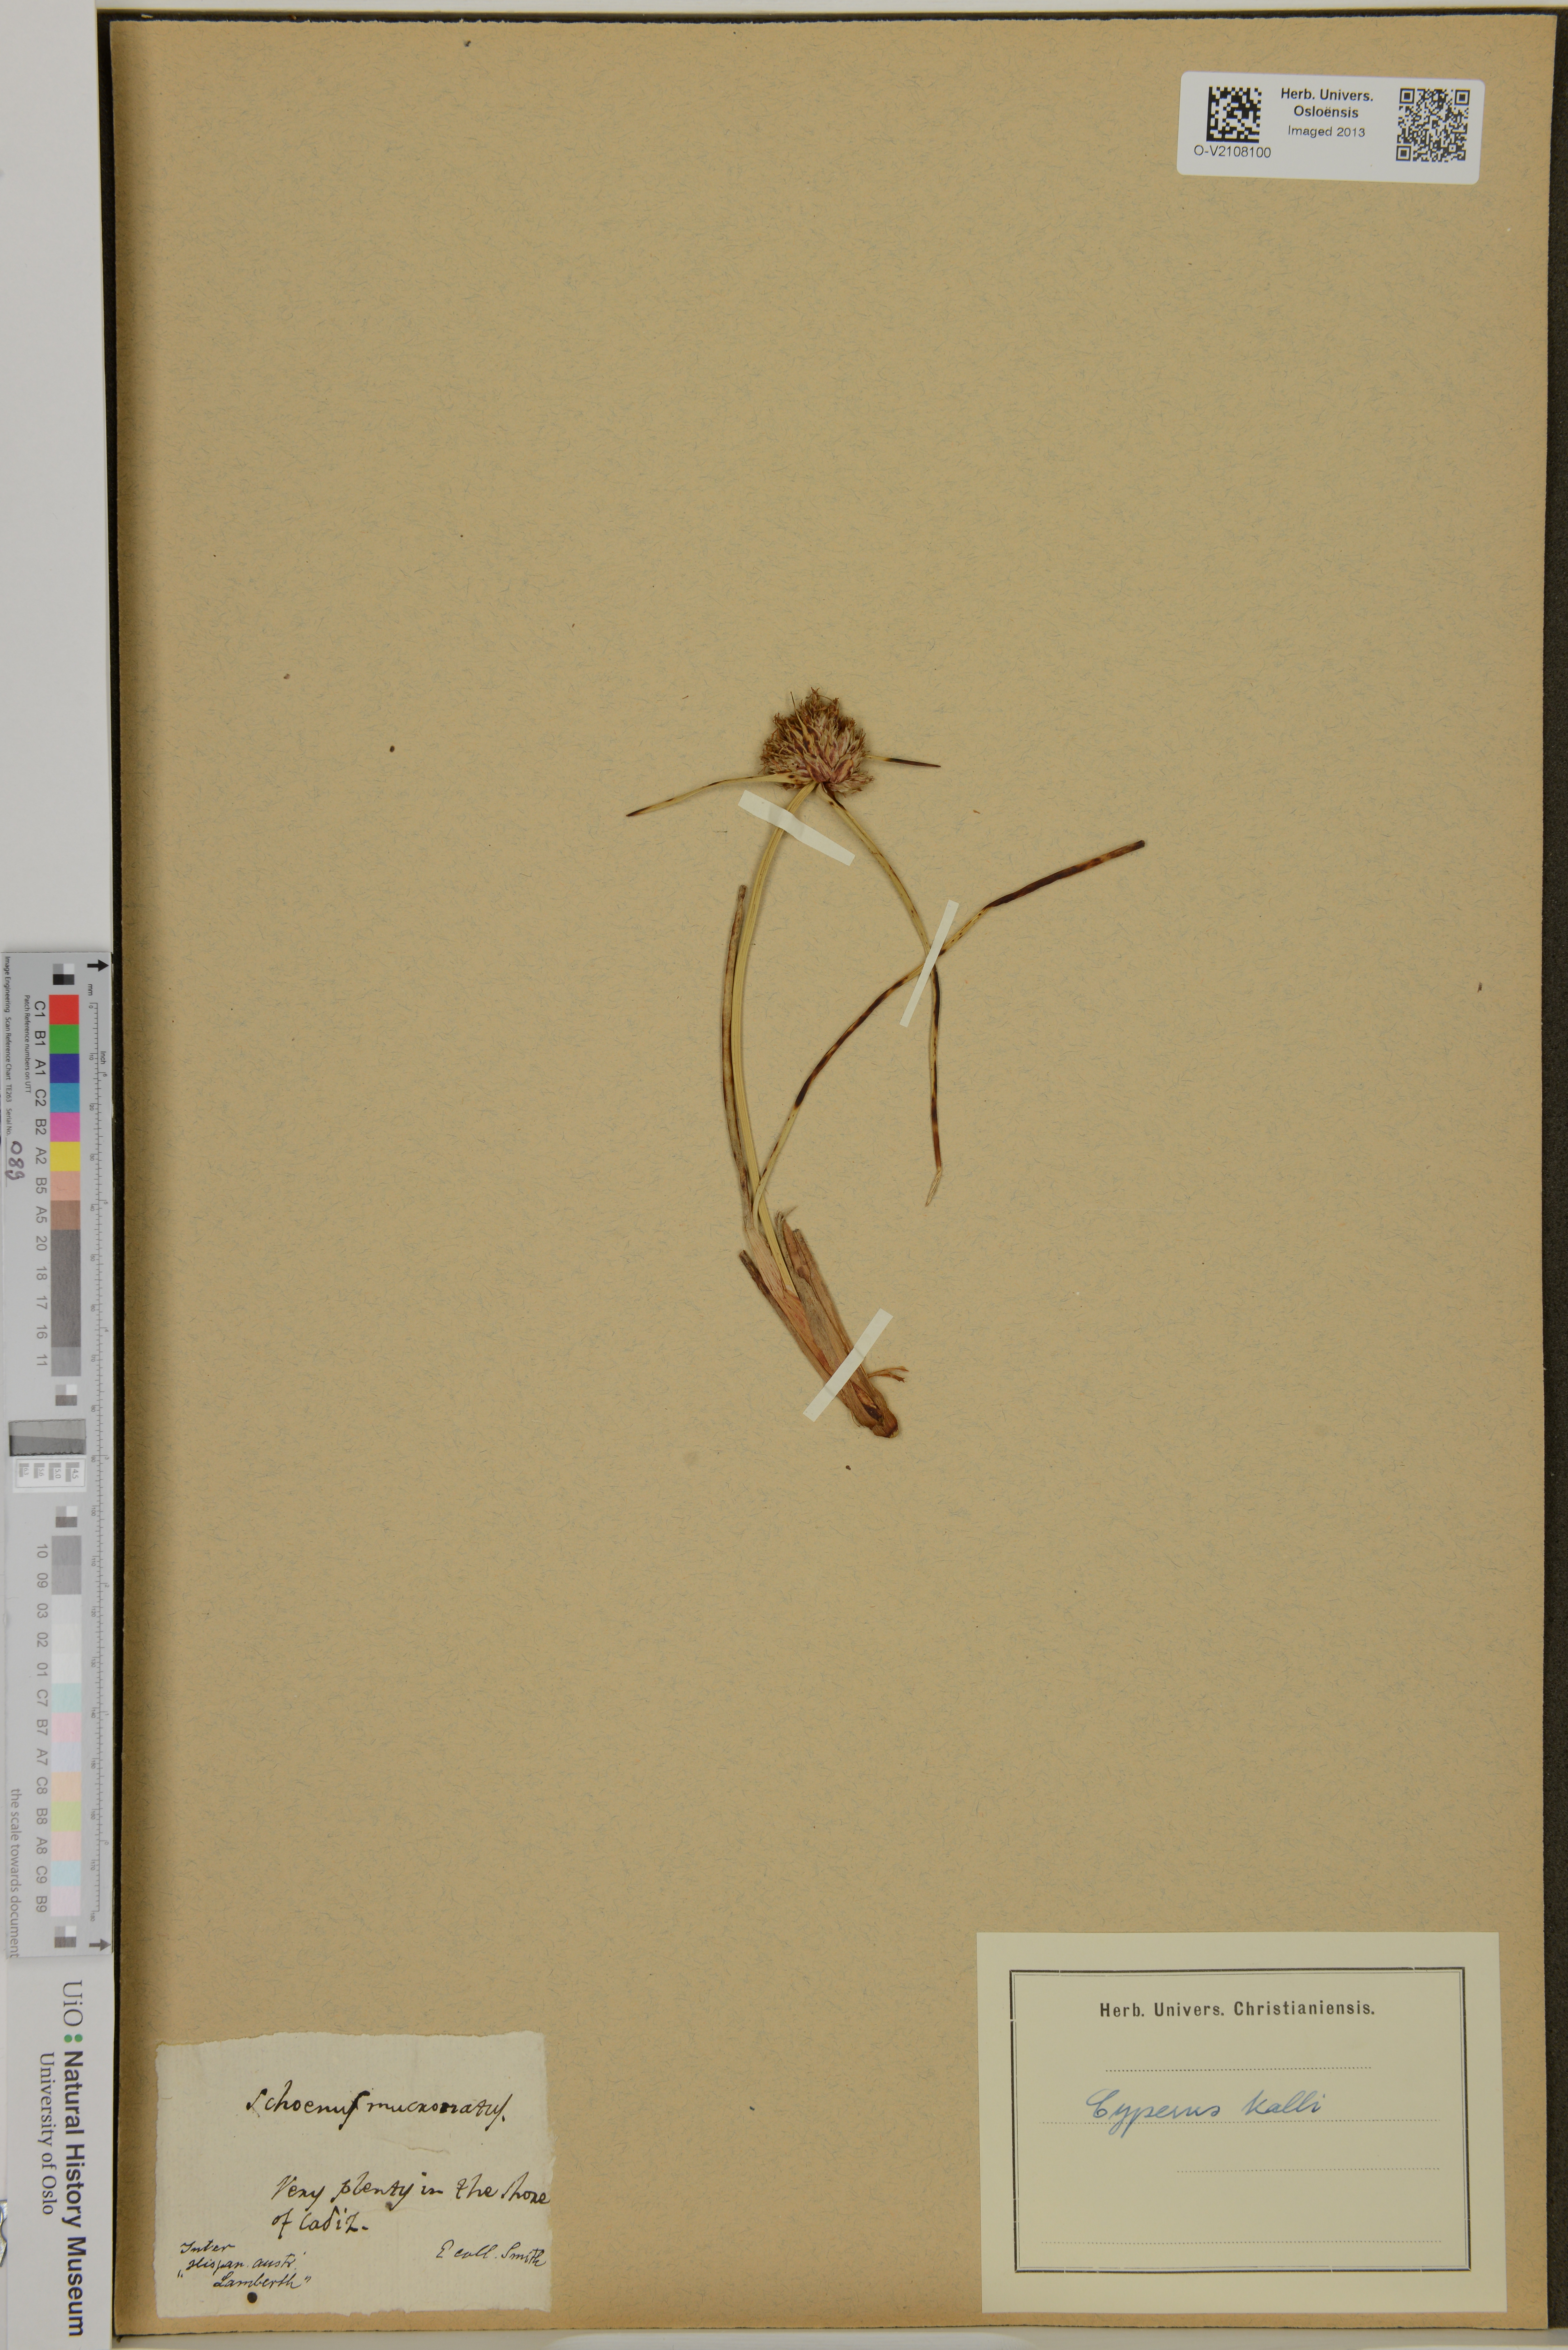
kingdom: Plantae
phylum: Tracheophyta
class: Liliopsida
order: Poales
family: Cyperaceae
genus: Cyperus
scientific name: Cyperus capitatus
